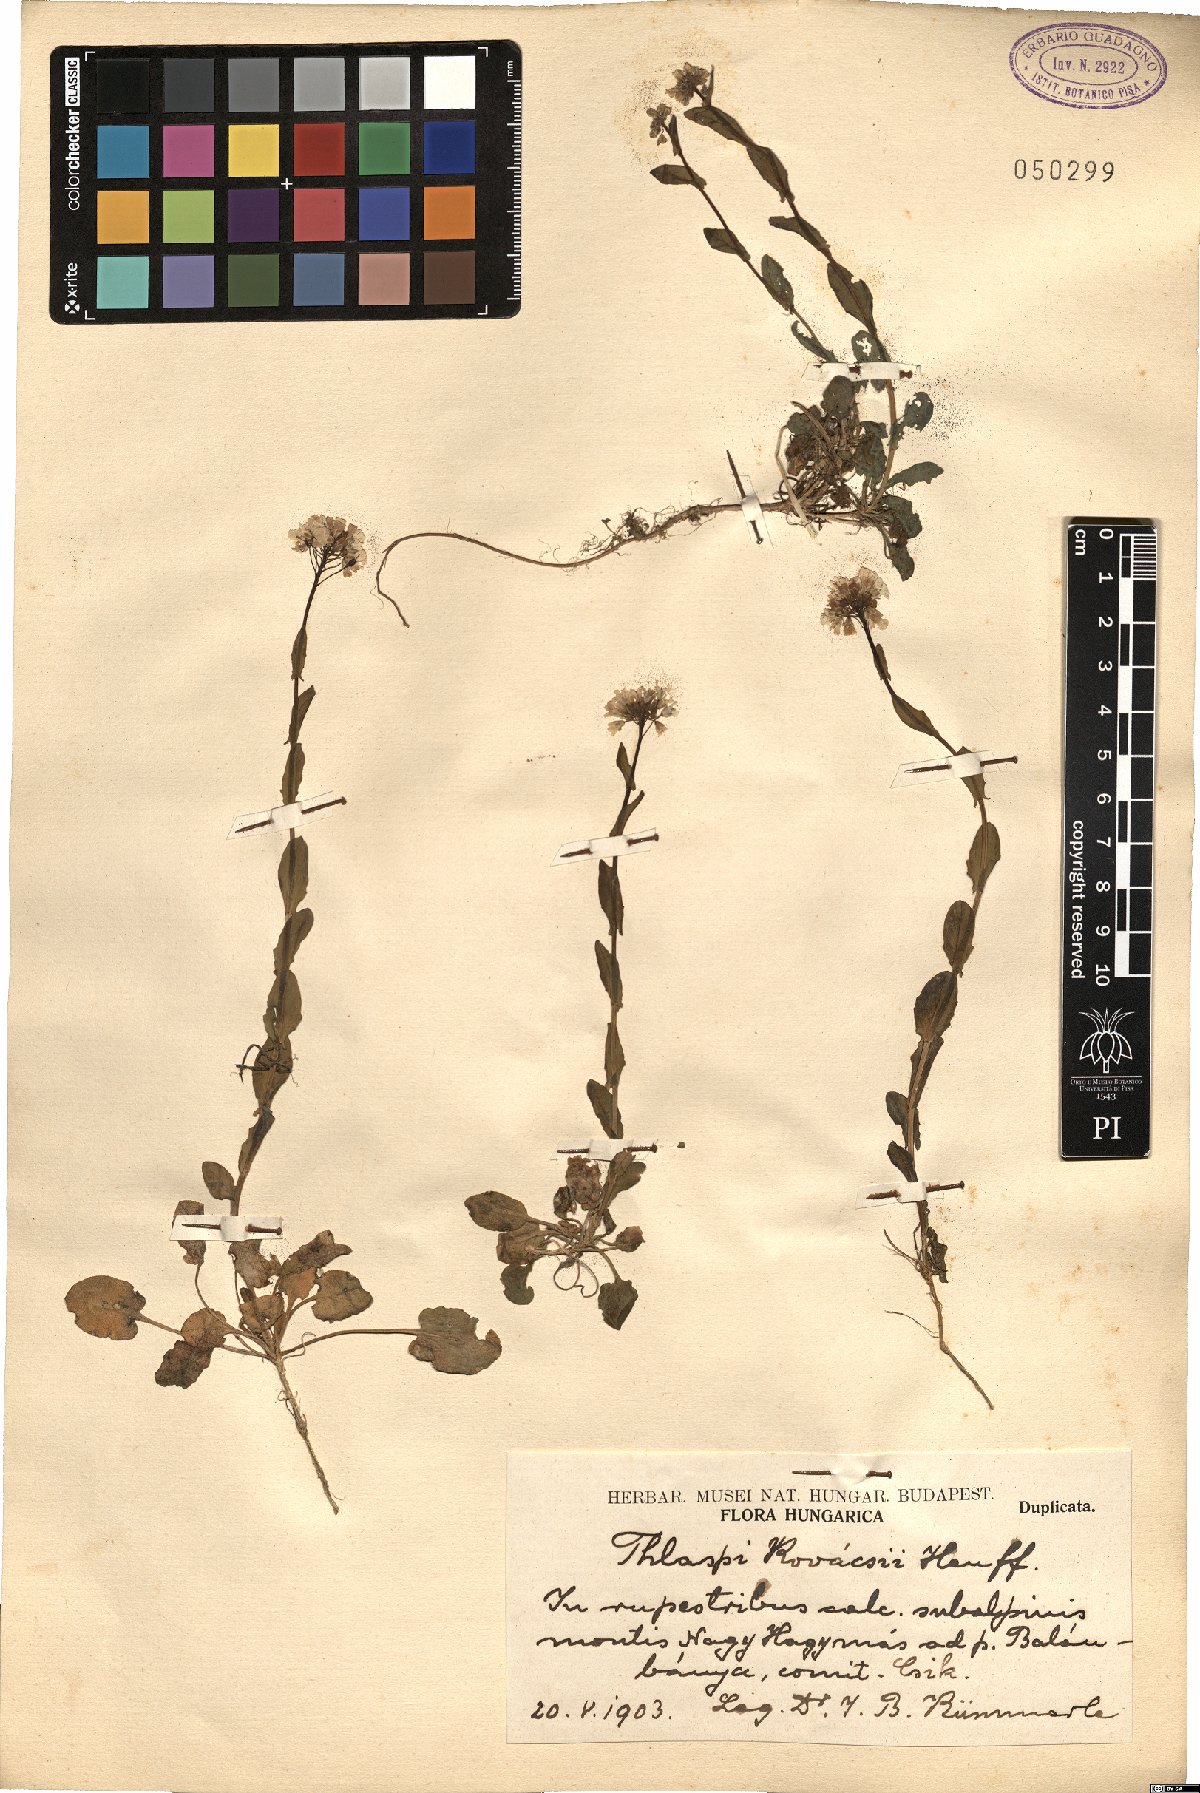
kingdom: Plantae
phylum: Tracheophyta
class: Magnoliopsida
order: Brassicales
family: Brassicaceae
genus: Noccaea
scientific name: Noccaea kovatsii
